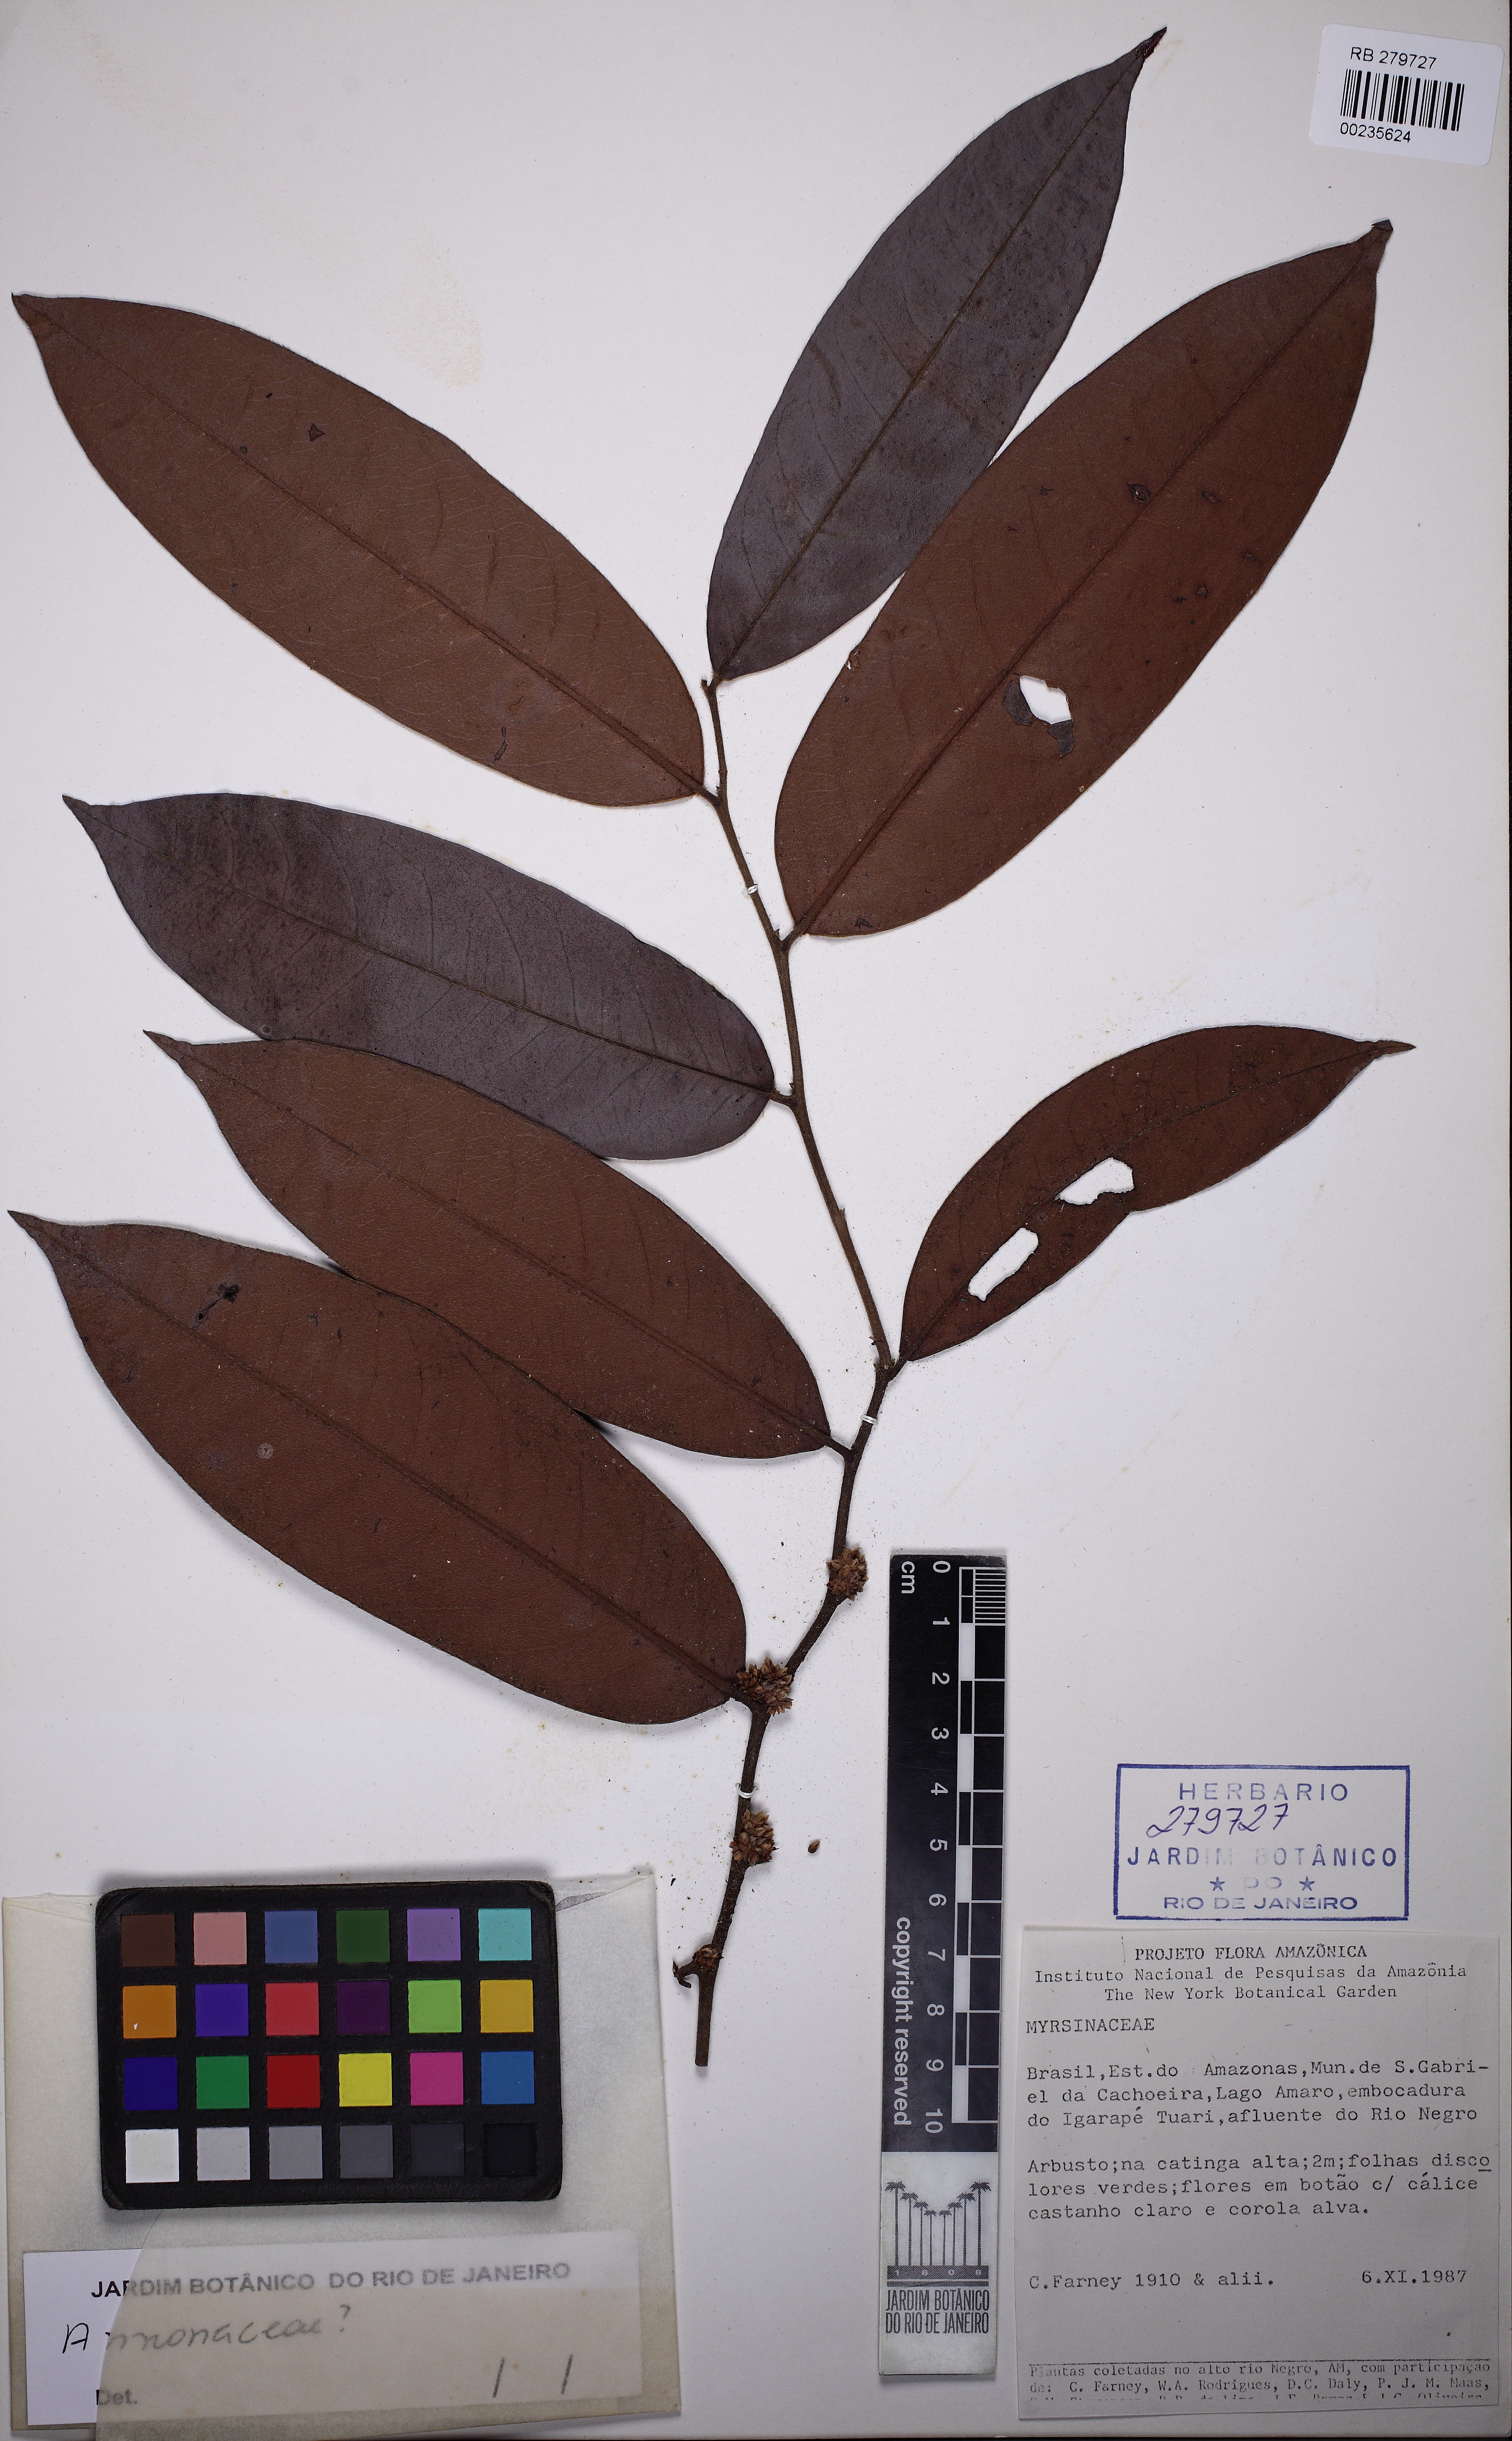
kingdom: Plantae
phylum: Tracheophyta
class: Magnoliopsida
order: Ericales
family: Ebenaceae
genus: Diospyros
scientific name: Diospyros myrmecocarpa
